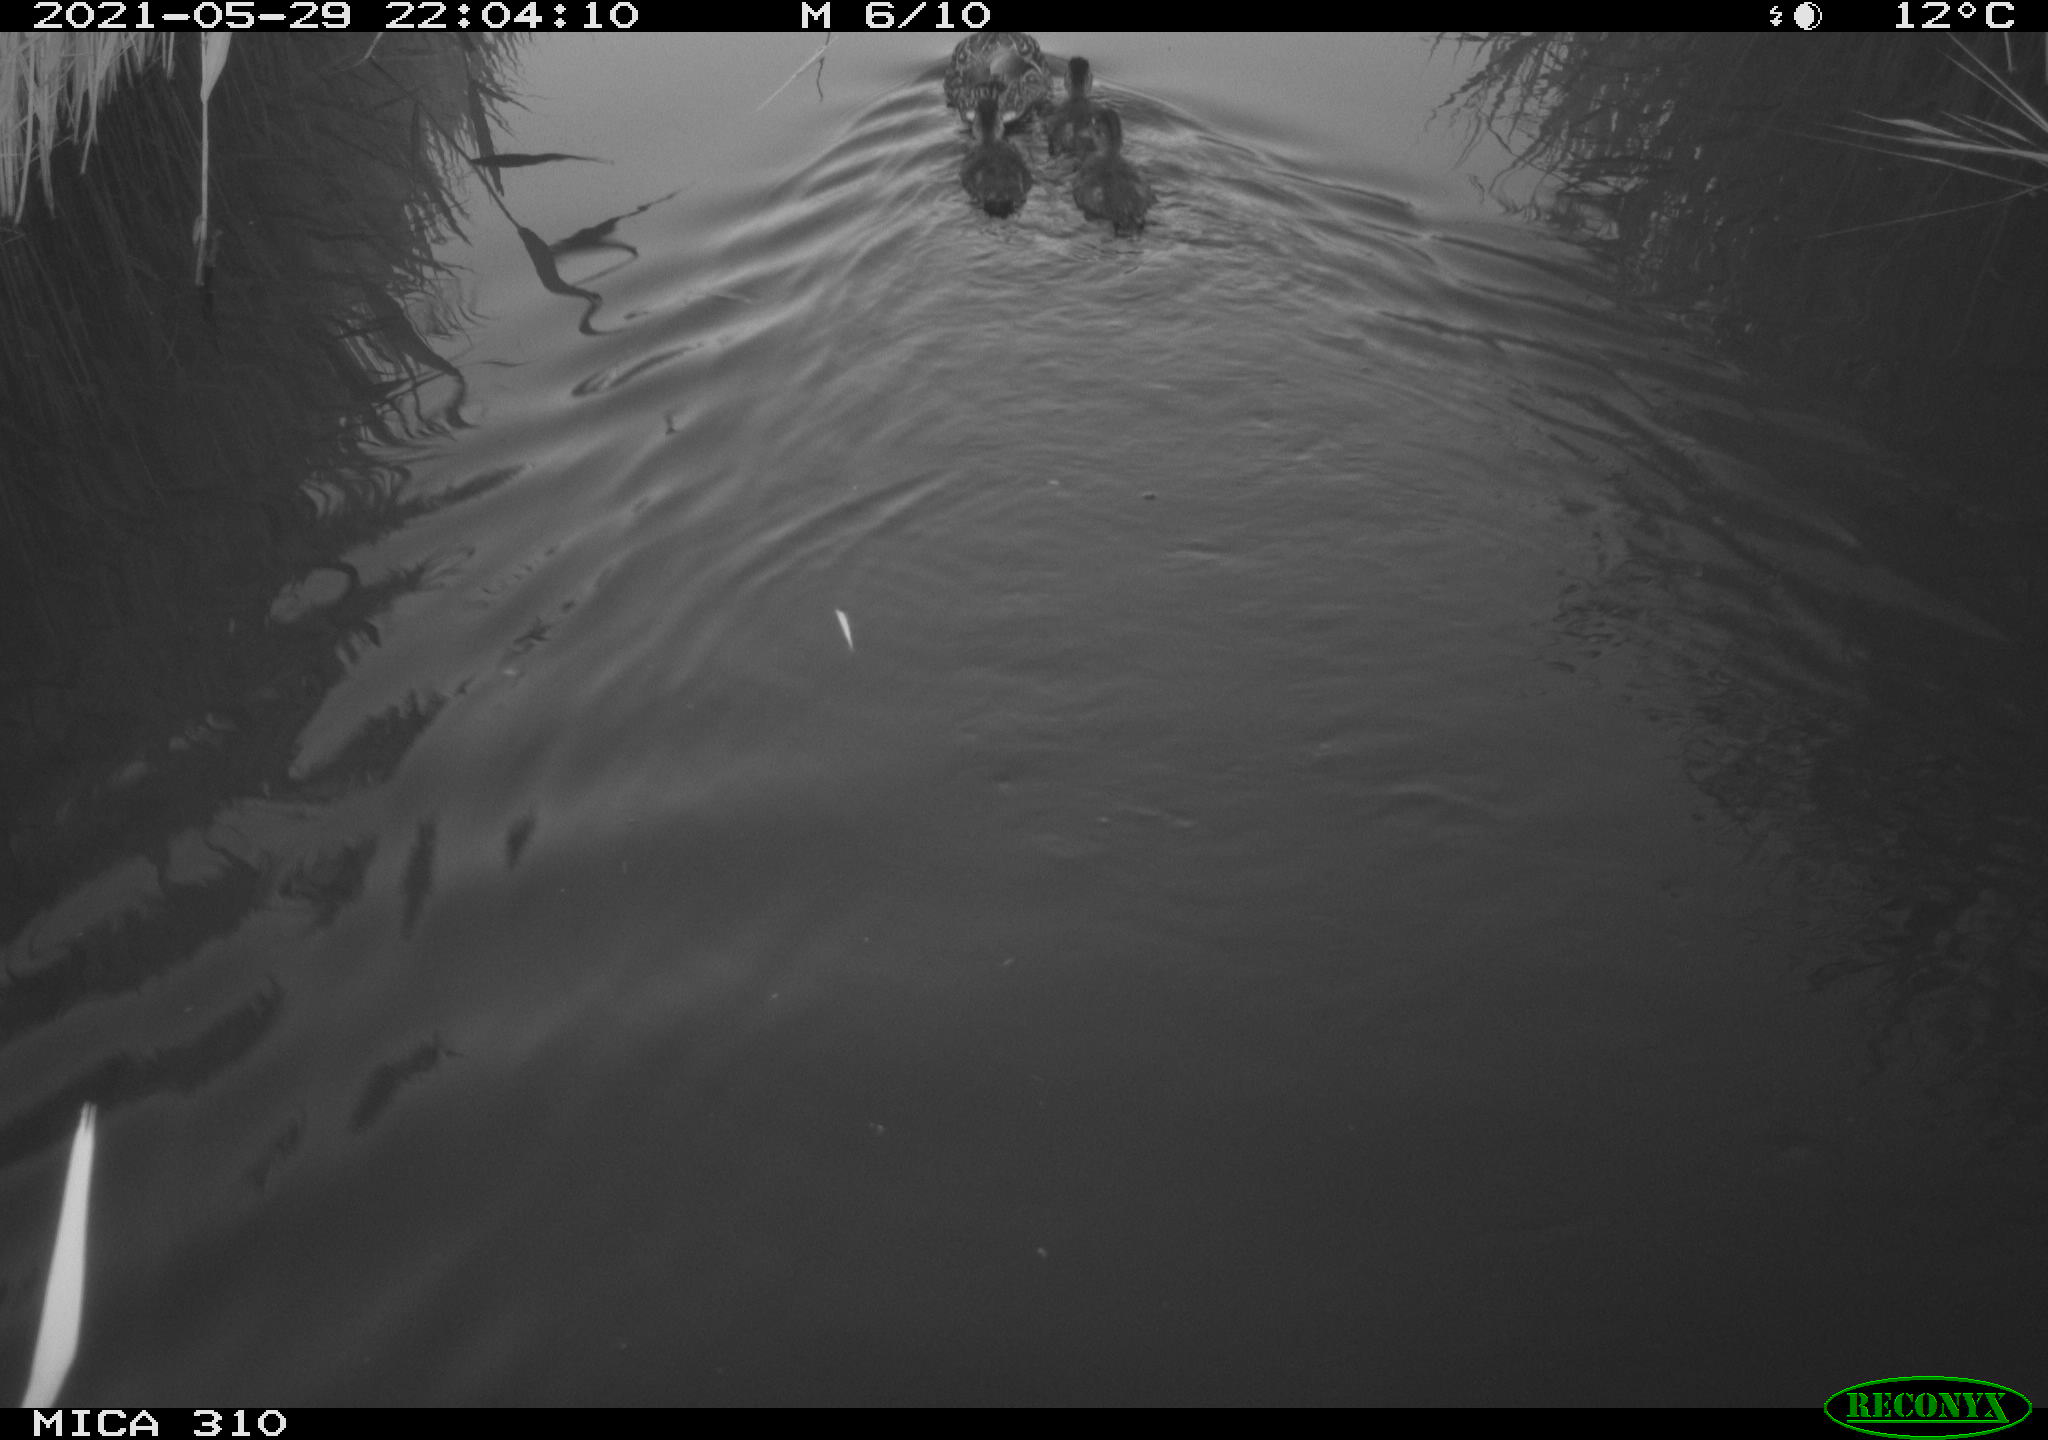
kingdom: Animalia
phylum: Chordata
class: Aves
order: Anseriformes
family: Anatidae
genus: Anas
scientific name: Anas platyrhynchos
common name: Mallard
